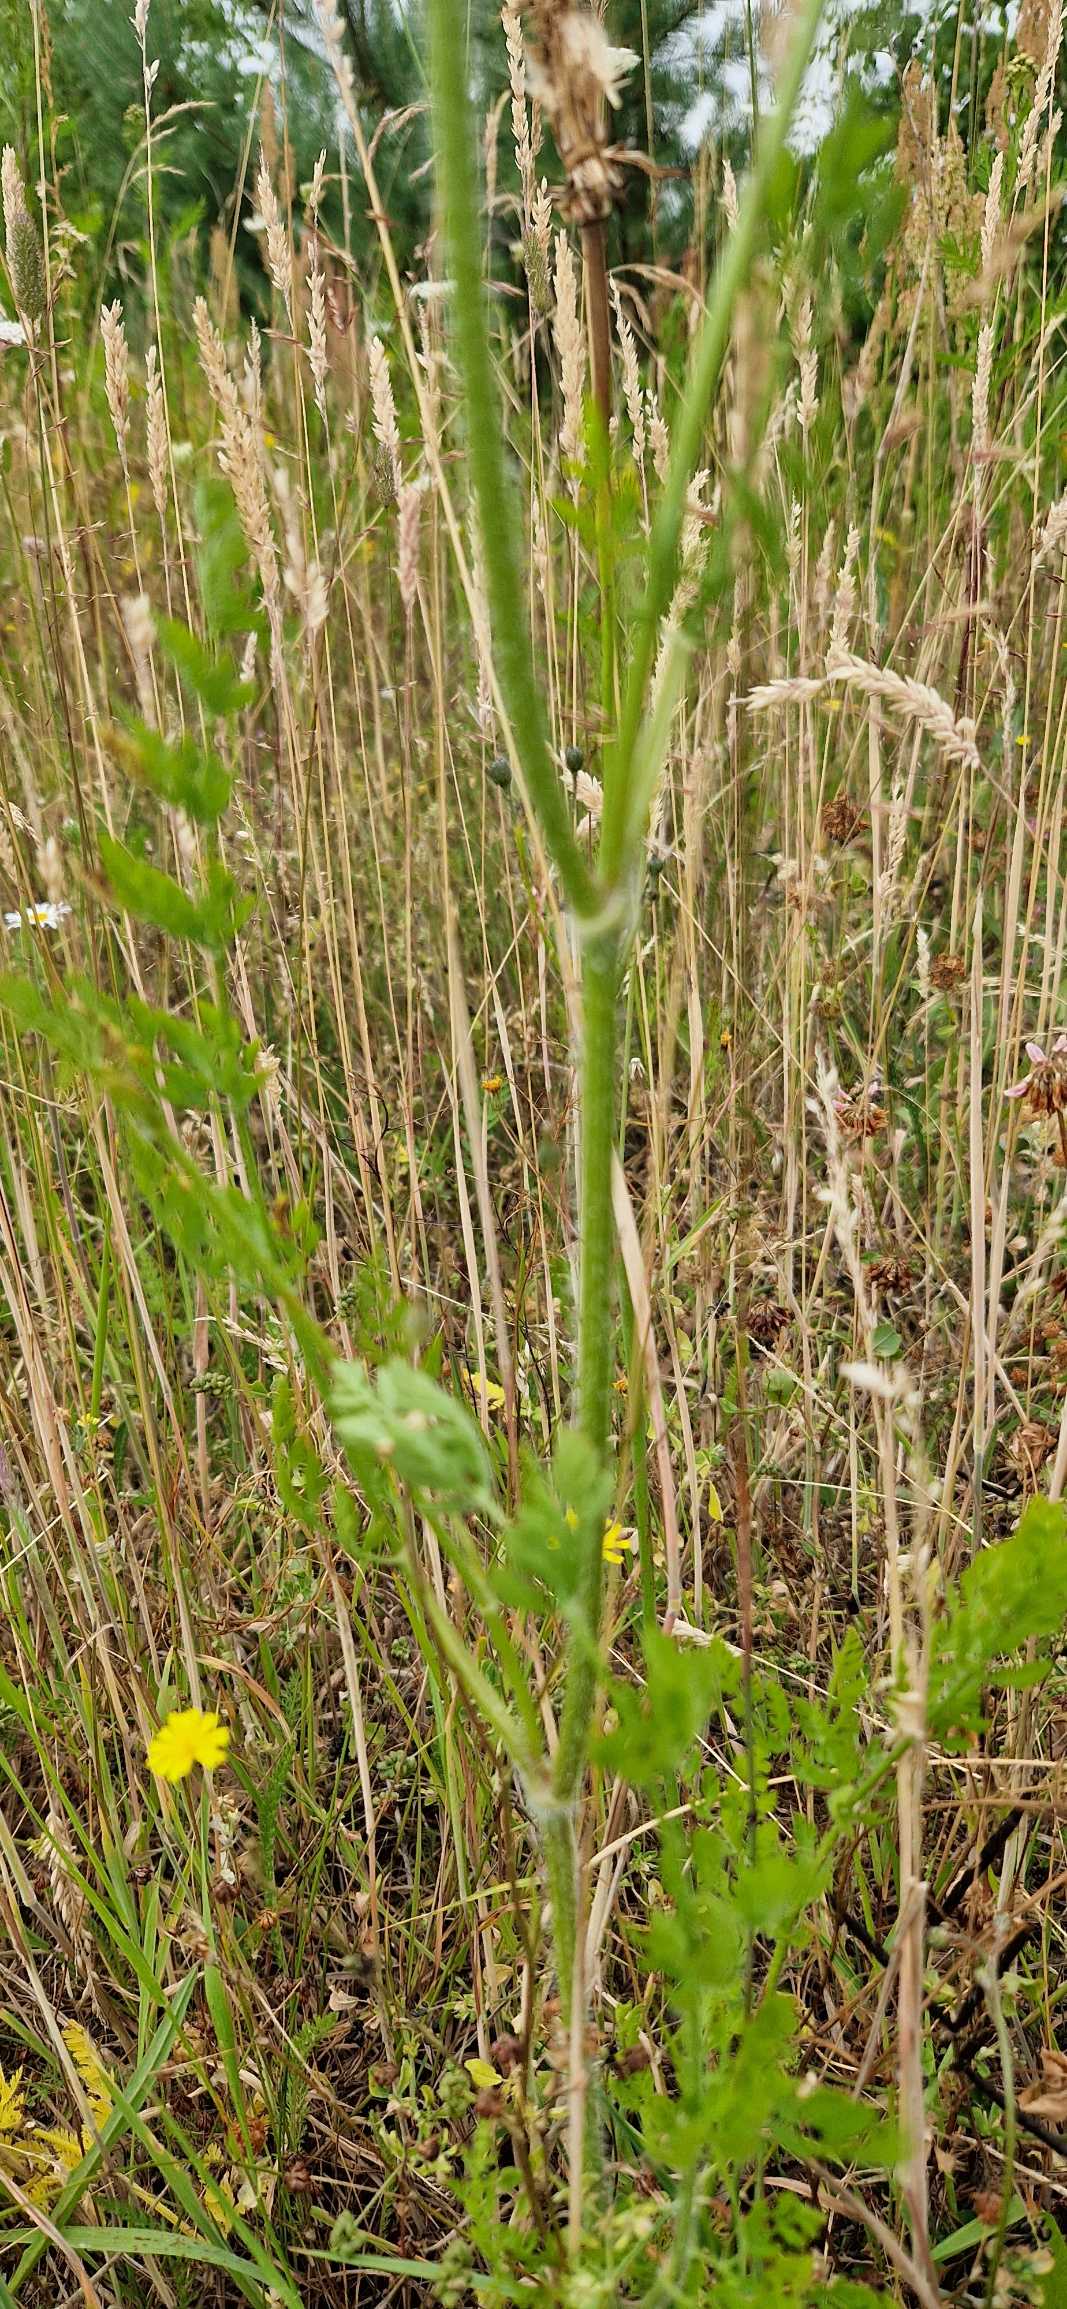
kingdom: Plantae
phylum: Tracheophyta
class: Magnoliopsida
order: Apiales
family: Apiaceae
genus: Daucus
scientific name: Daucus carota
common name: Vild gulerod
